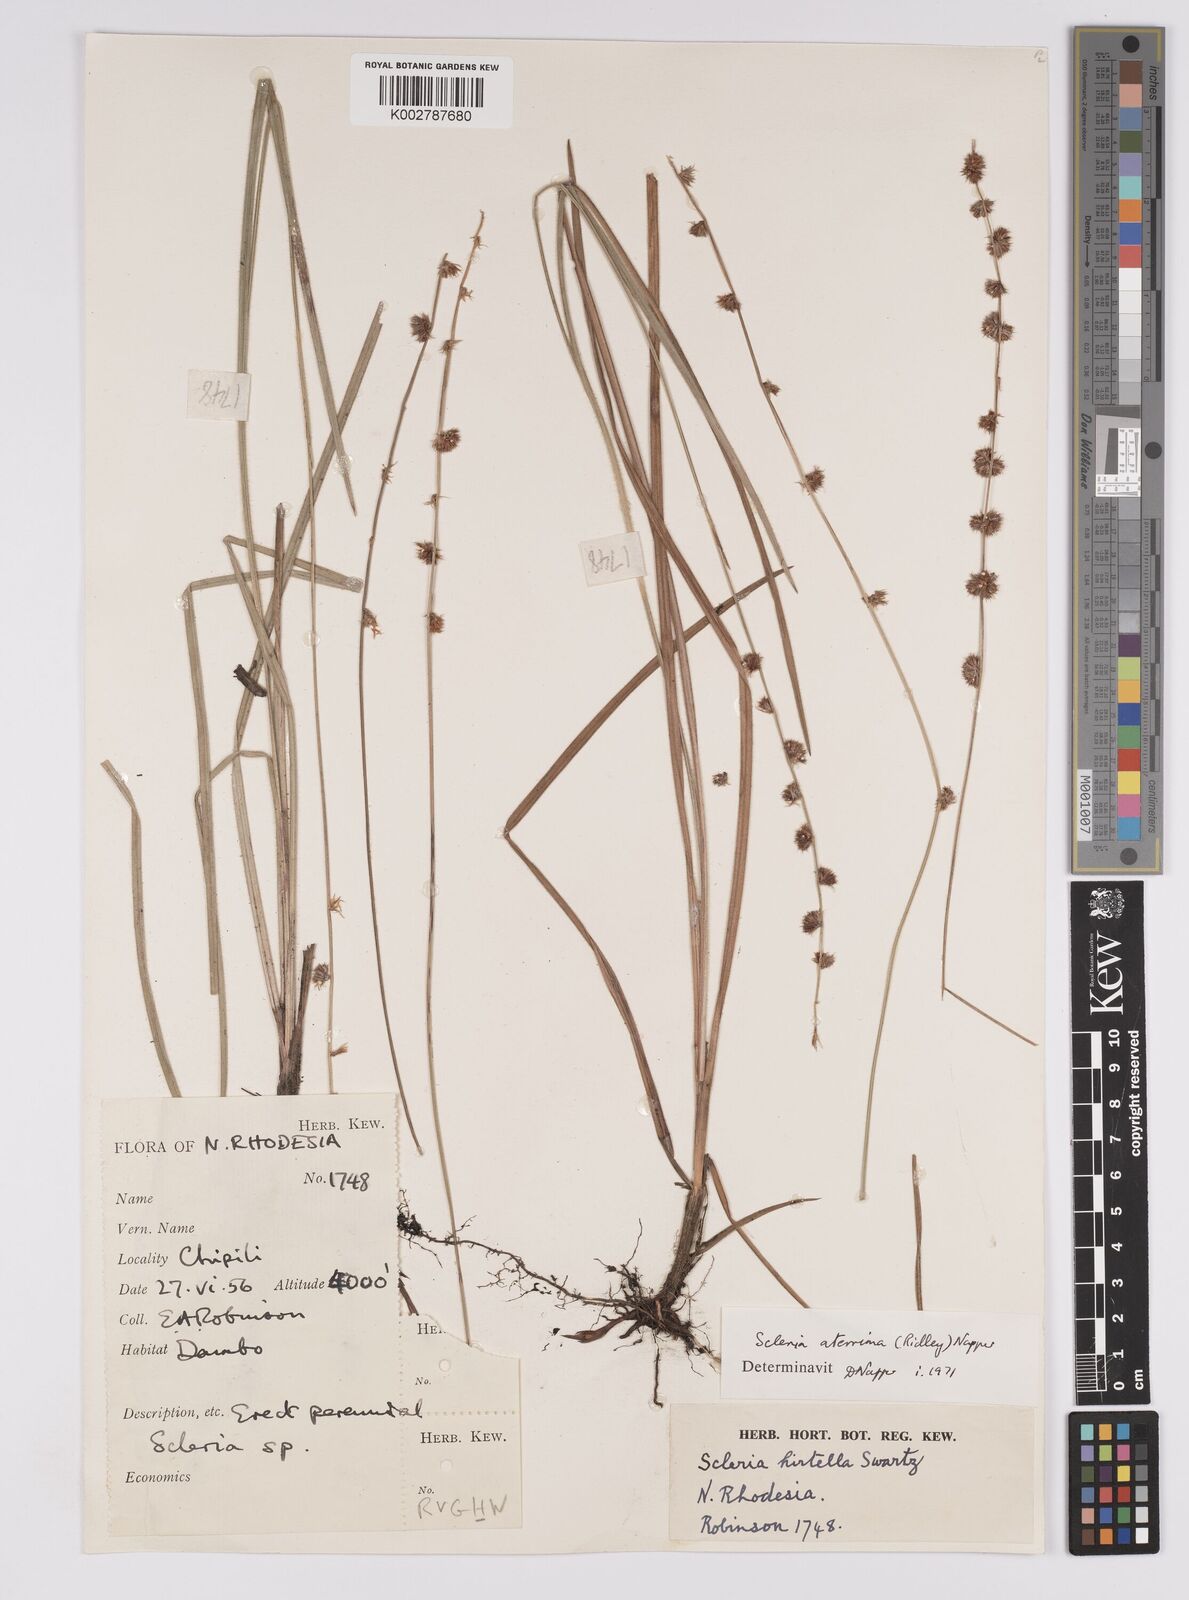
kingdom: Plantae
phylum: Tracheophyta
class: Liliopsida
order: Poales
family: Cyperaceae
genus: Scleria
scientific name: Scleria catophylla
